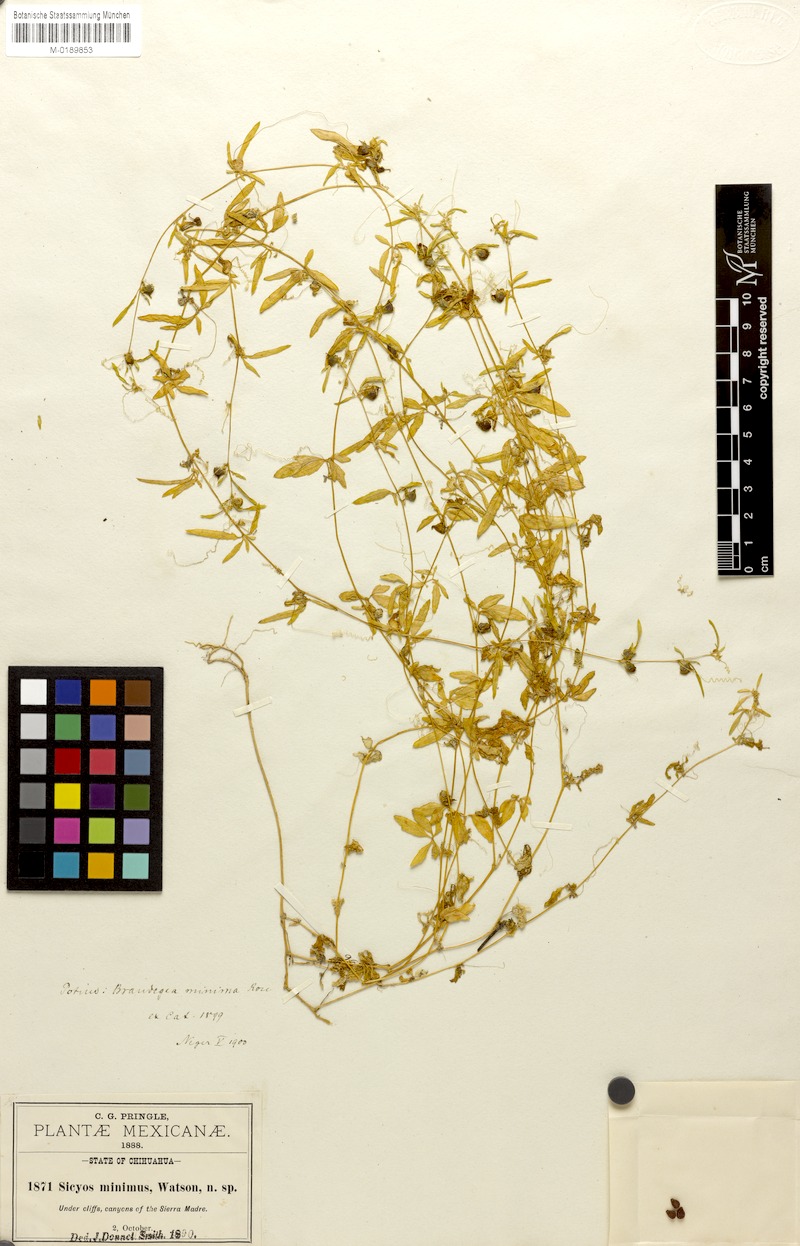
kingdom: Plantae
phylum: Tracheophyta
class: Magnoliopsida
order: Cucurbitales
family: Cucurbitaceae
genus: Echinopepon
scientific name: Echinopepon bigelovii
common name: Desert starvine
